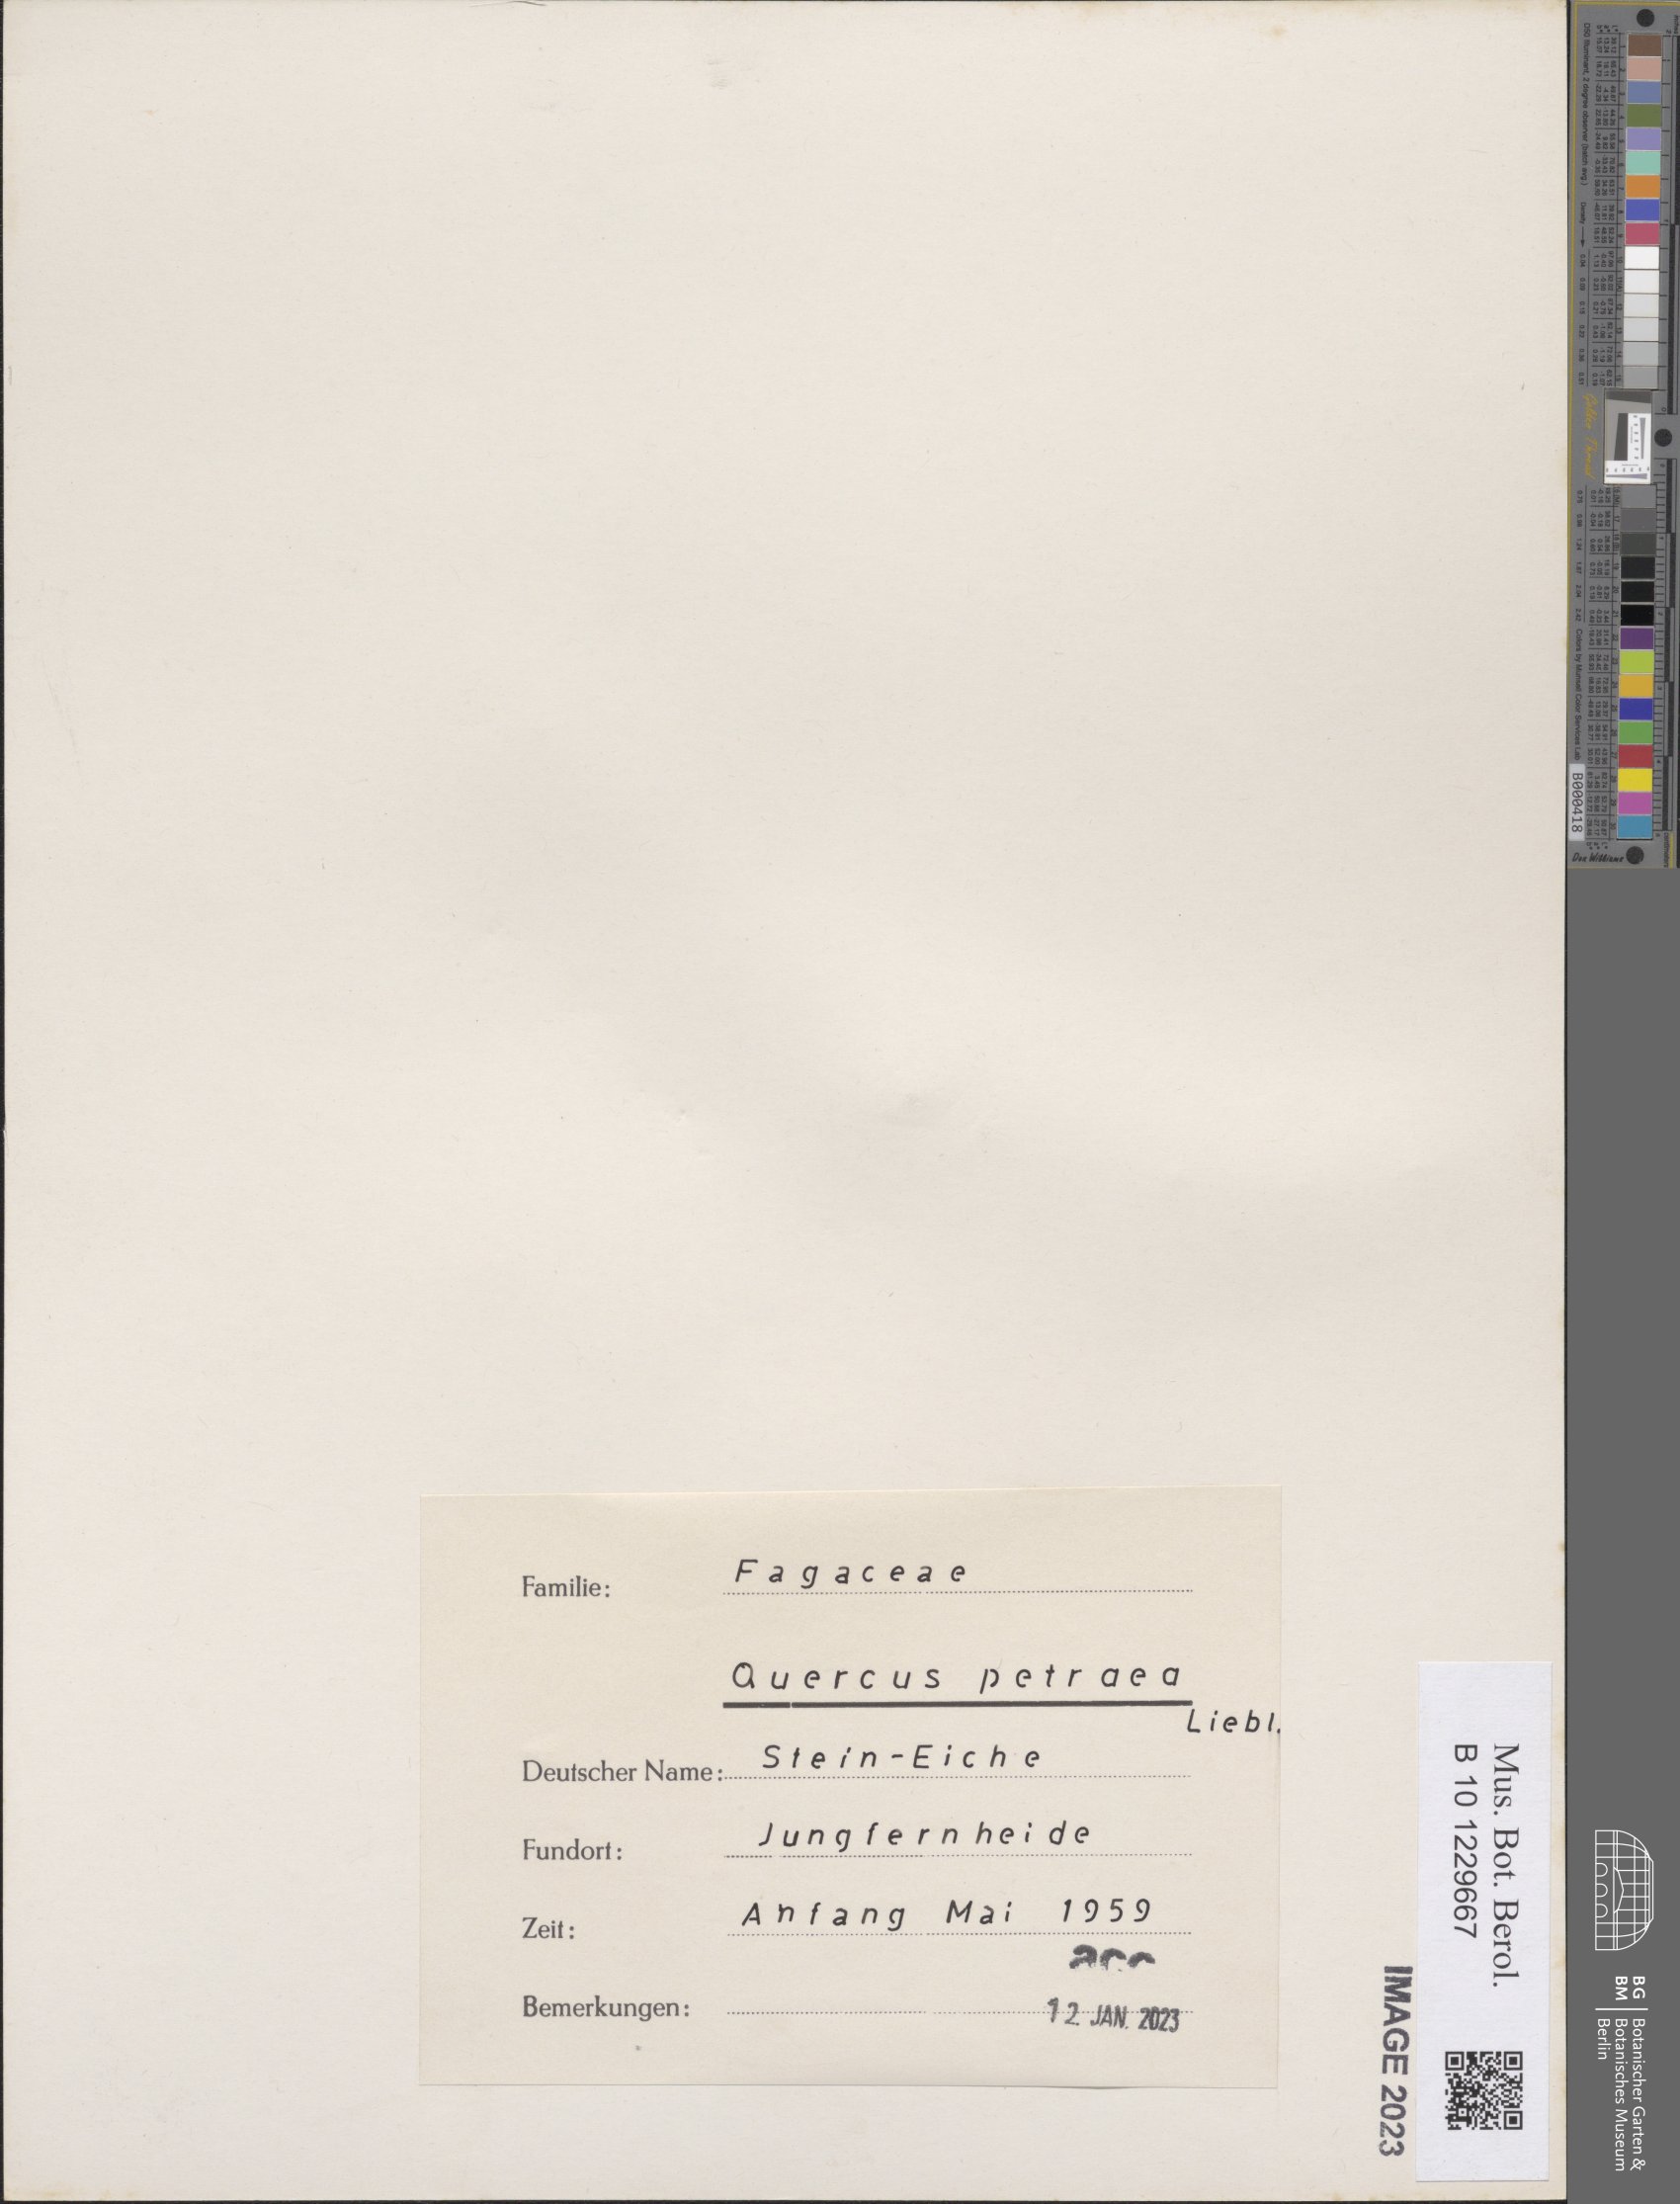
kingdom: Plantae
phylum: Tracheophyta
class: Magnoliopsida
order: Fagales
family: Fagaceae
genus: Quercus
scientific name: Quercus petraea
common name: Sessile oak
